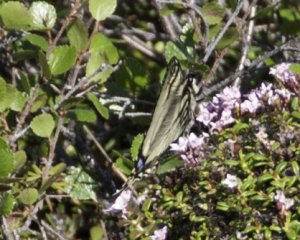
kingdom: Animalia
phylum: Arthropoda
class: Insecta
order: Lepidoptera
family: Papilionidae
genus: Pterourus
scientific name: Pterourus canadensis
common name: Canadian Tiger Swallowtail
